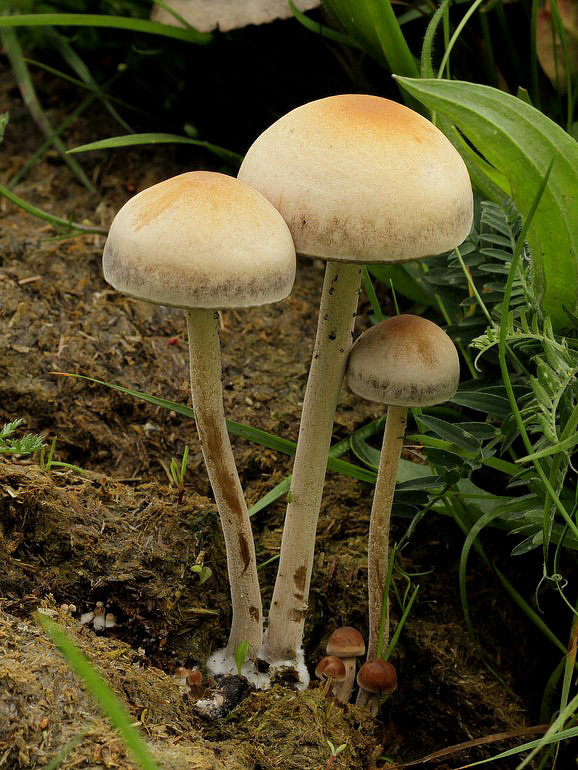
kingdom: Fungi
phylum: Basidiomycota
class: Agaricomycetes
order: Agaricales
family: Bolbitiaceae
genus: Panaeolus
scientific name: Panaeolus subfirmus
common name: fælled-glanshat
